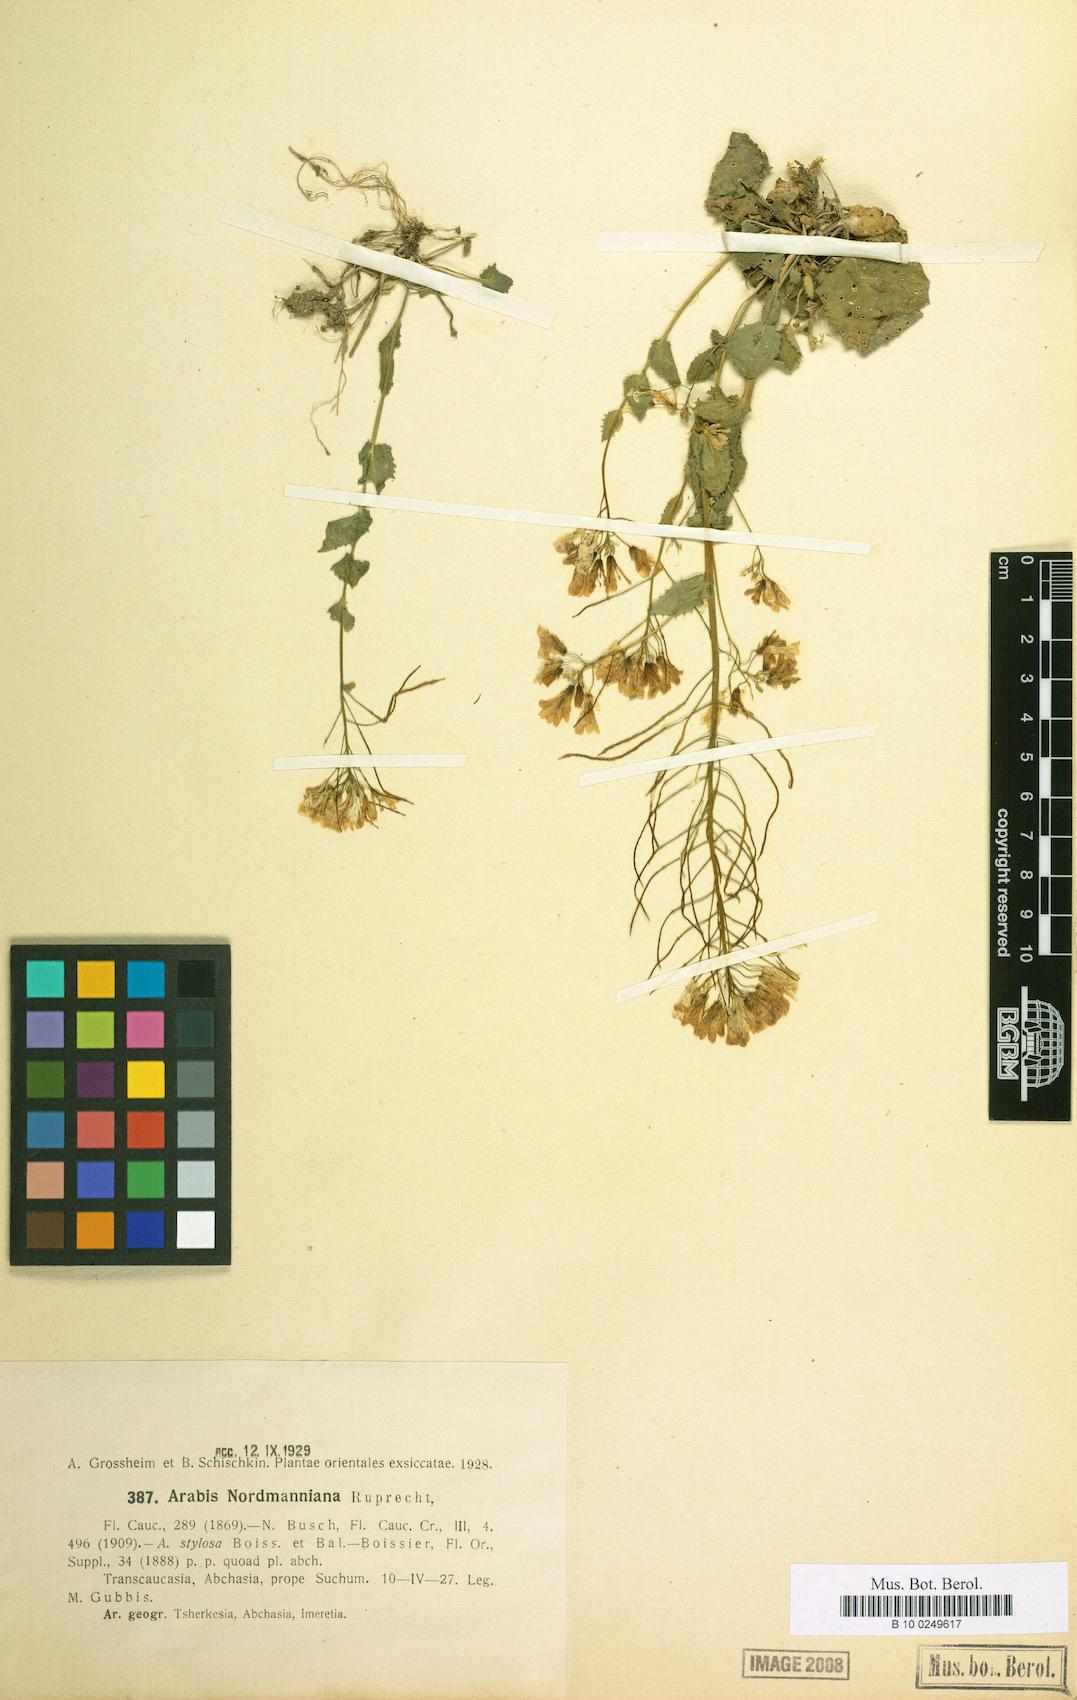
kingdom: Plantae
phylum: Tracheophyta
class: Magnoliopsida
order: Brassicales
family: Brassicaceae
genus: Arabis
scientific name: Arabis nordmanniana
